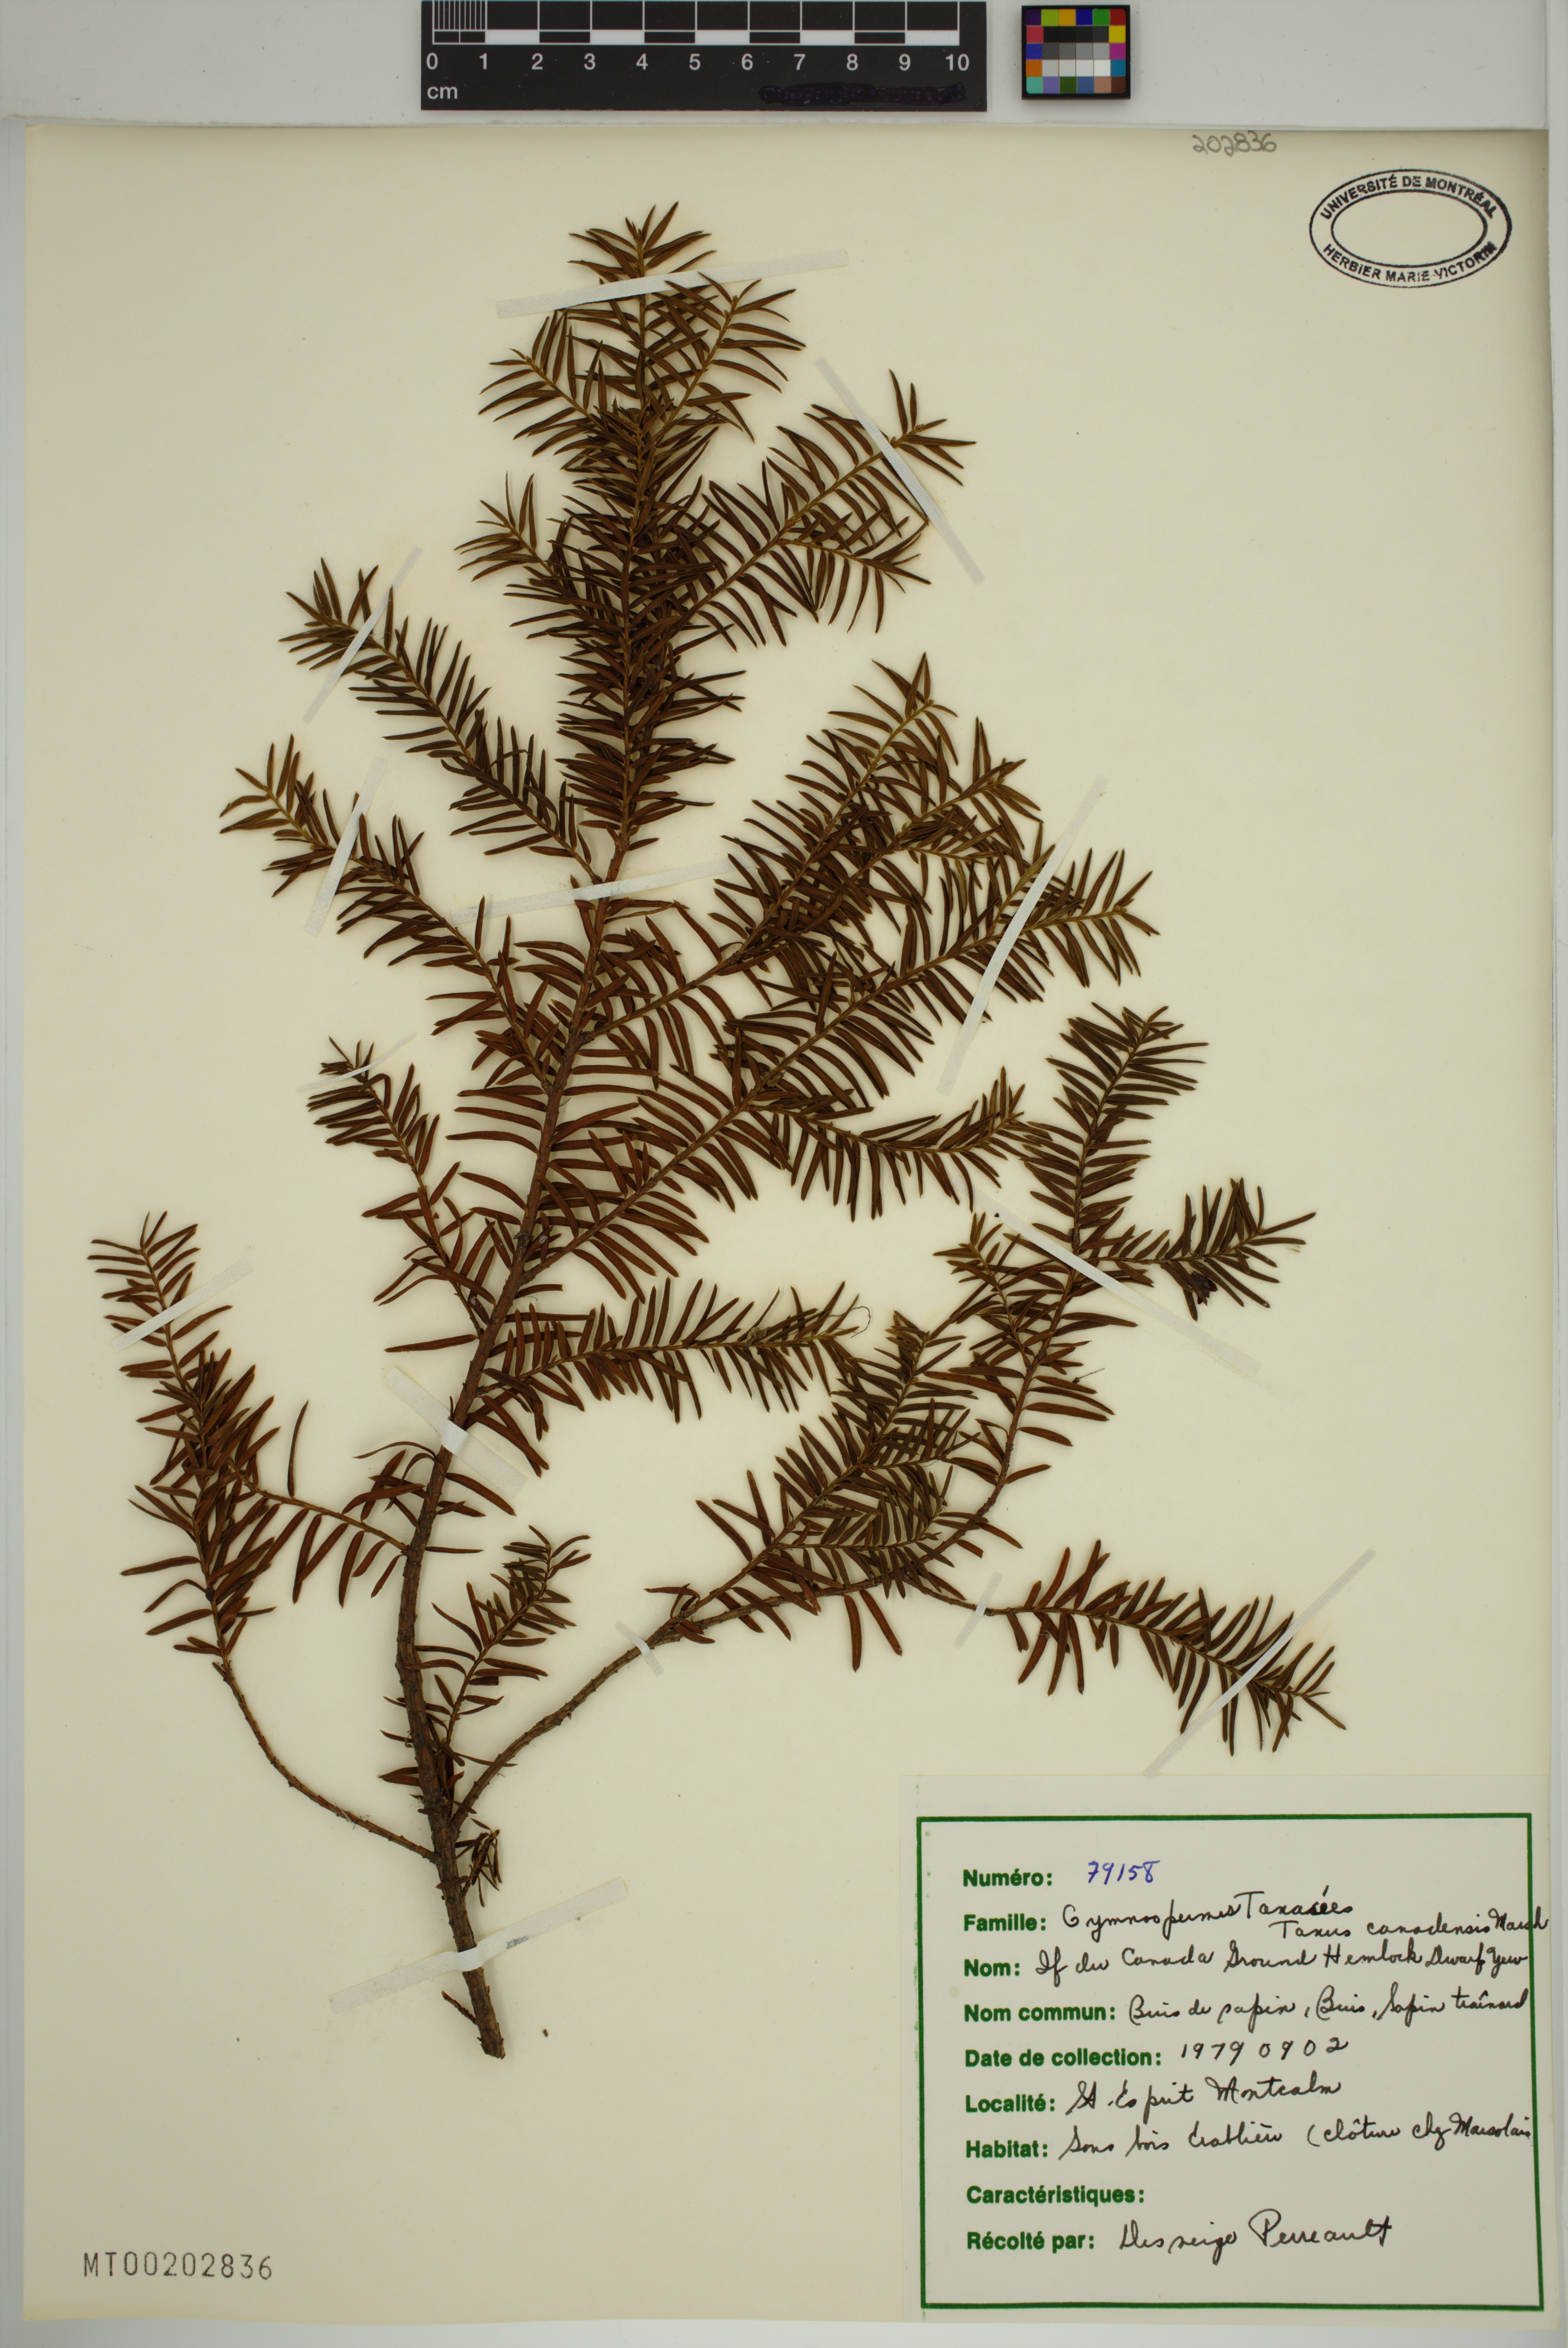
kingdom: Plantae
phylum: Tracheophyta
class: Pinopsida
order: Pinales
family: Taxaceae
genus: Taxus
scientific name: Taxus canadensis
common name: American yew
